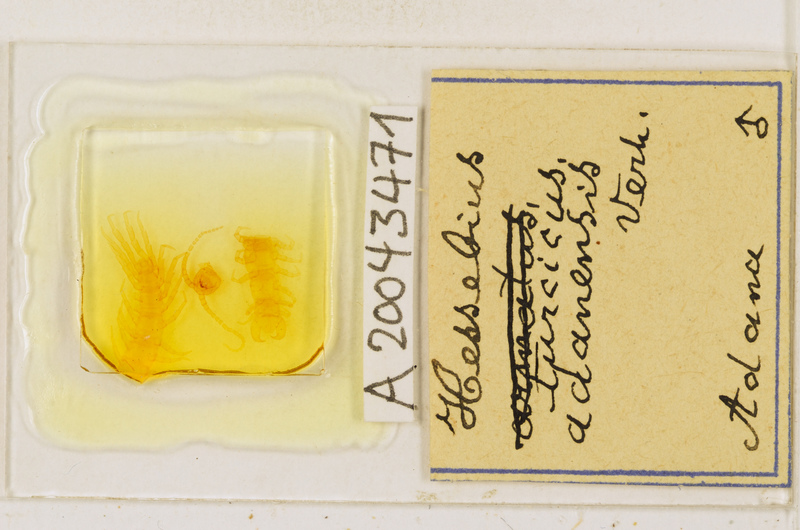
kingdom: Animalia
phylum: Arthropoda
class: Chilopoda
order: Lithobiomorpha
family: Lithobiidae
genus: Hessebius
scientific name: Hessebius
